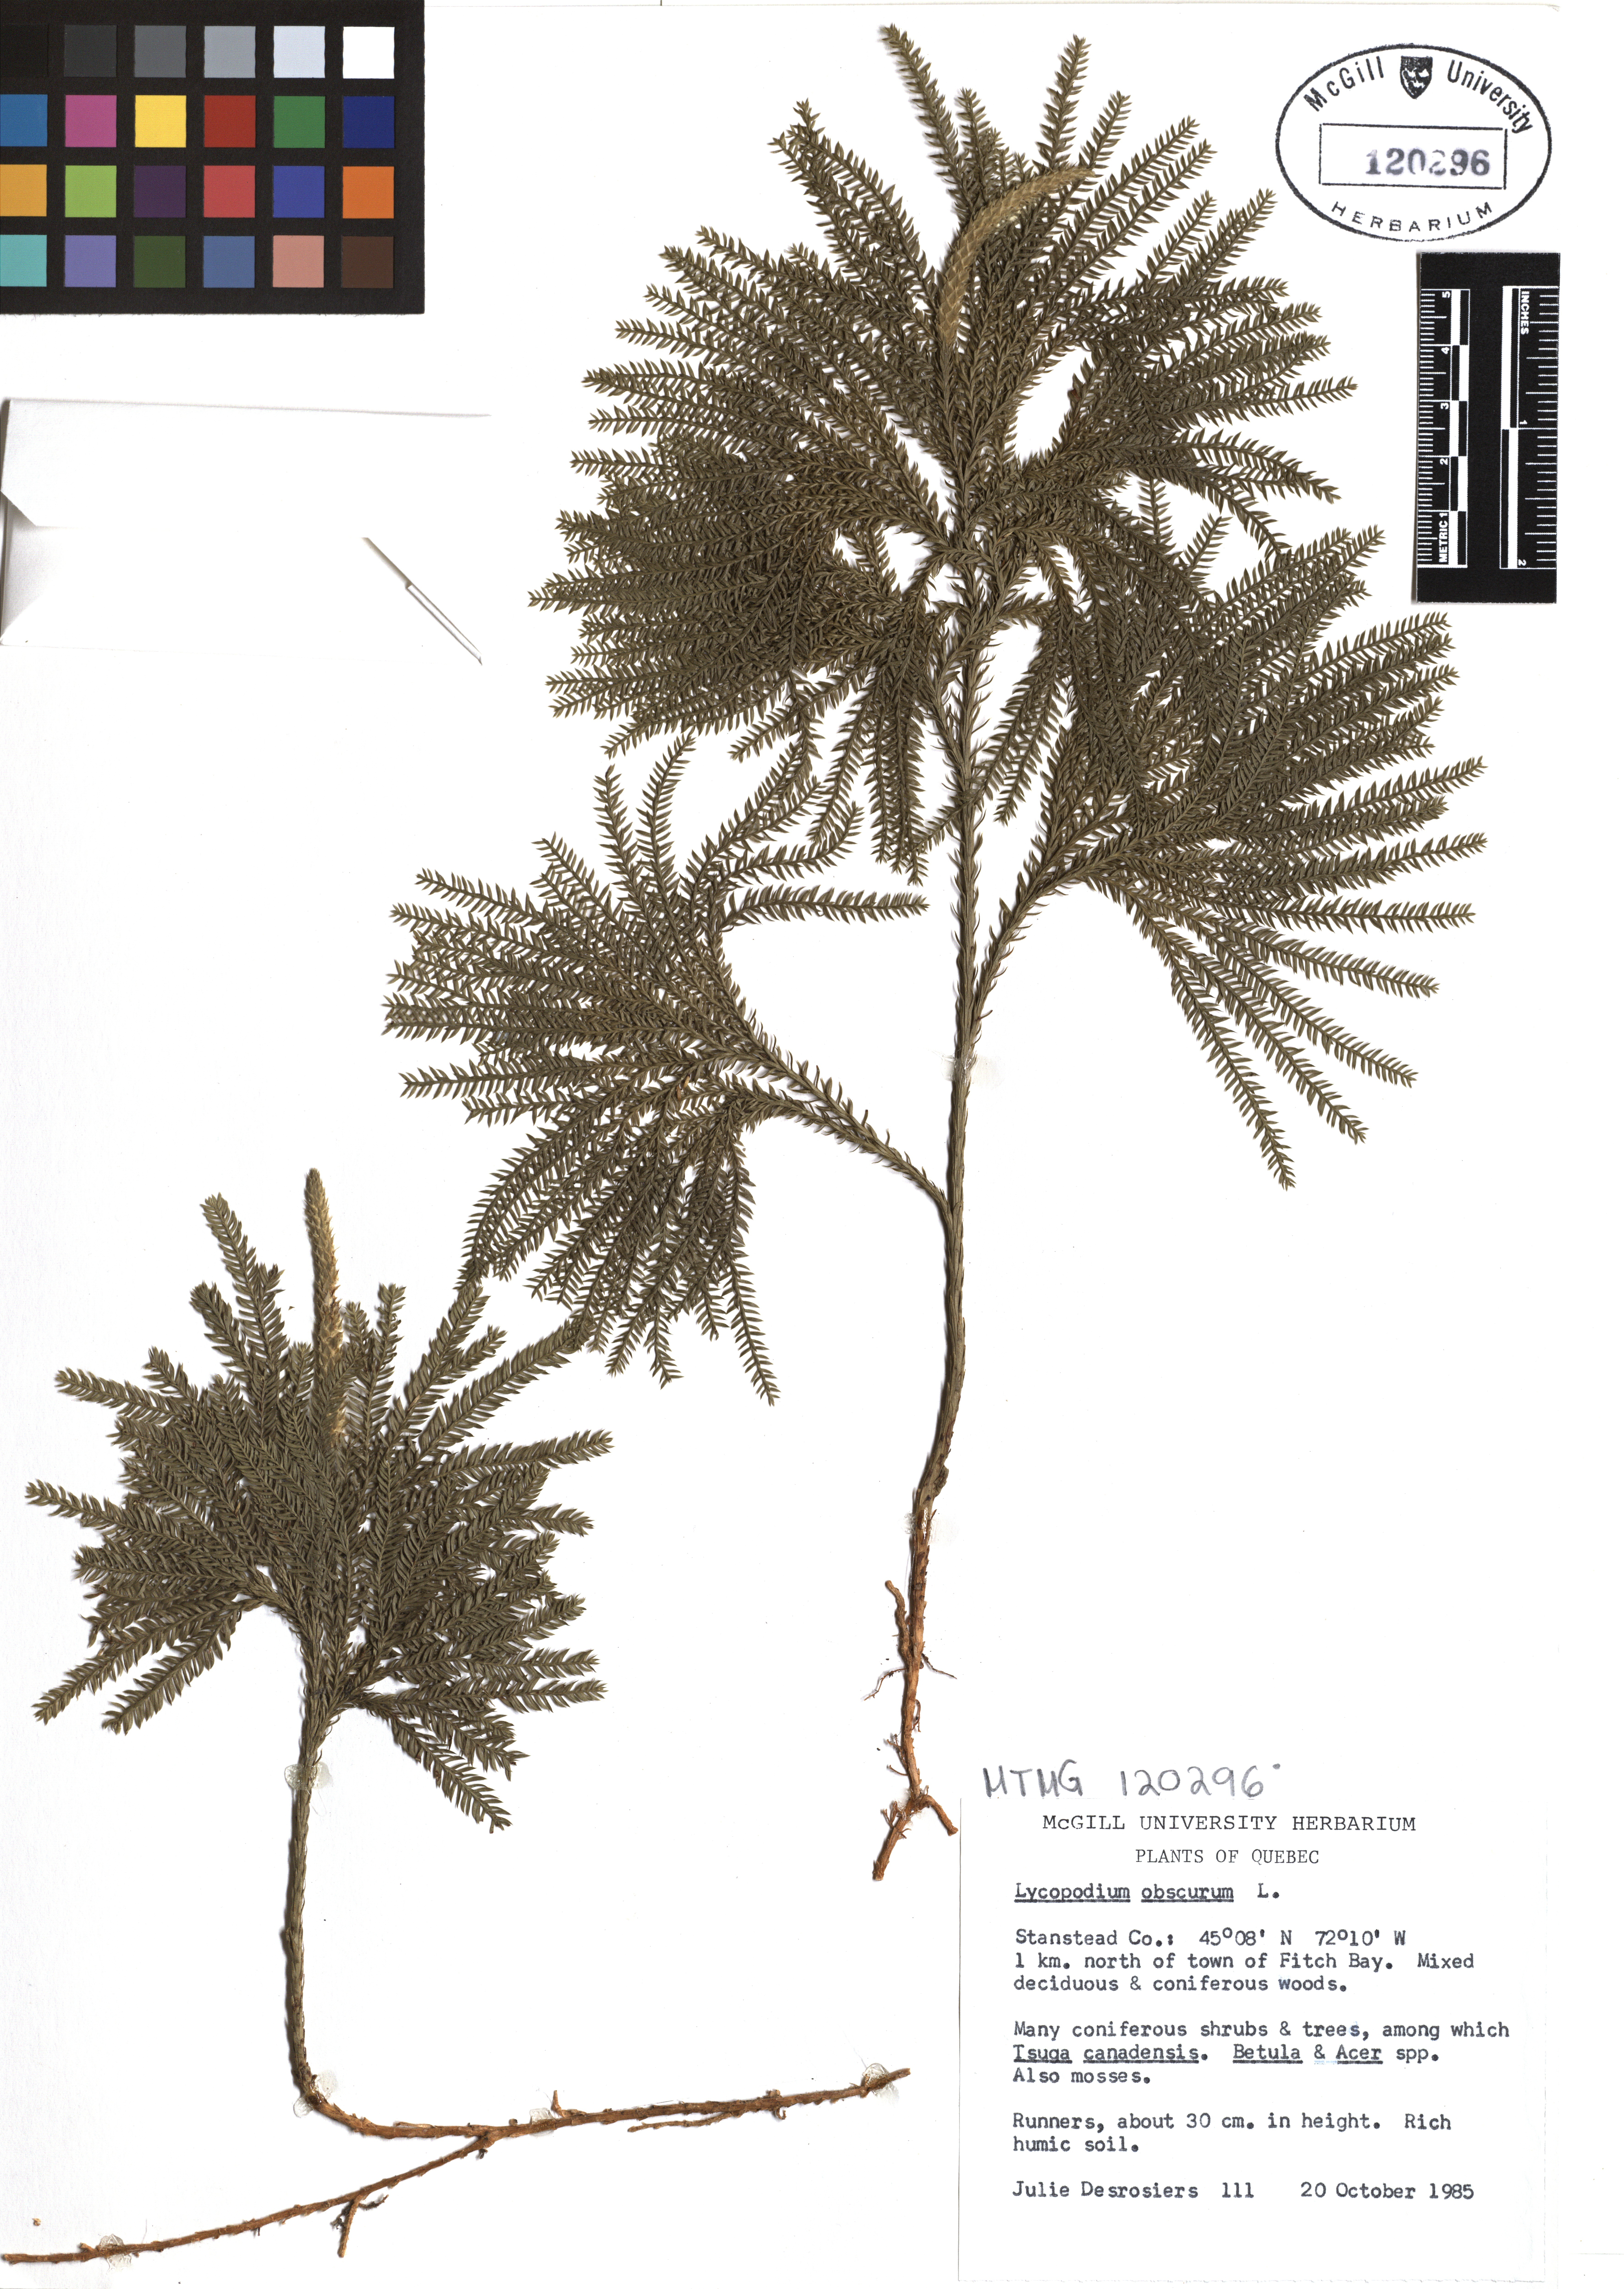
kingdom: Plantae
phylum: Tracheophyta
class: Lycopodiopsida
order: Lycopodiales
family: Lycopodiaceae
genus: Dendrolycopodium
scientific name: Dendrolycopodium obscurum
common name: Common ground-pine
